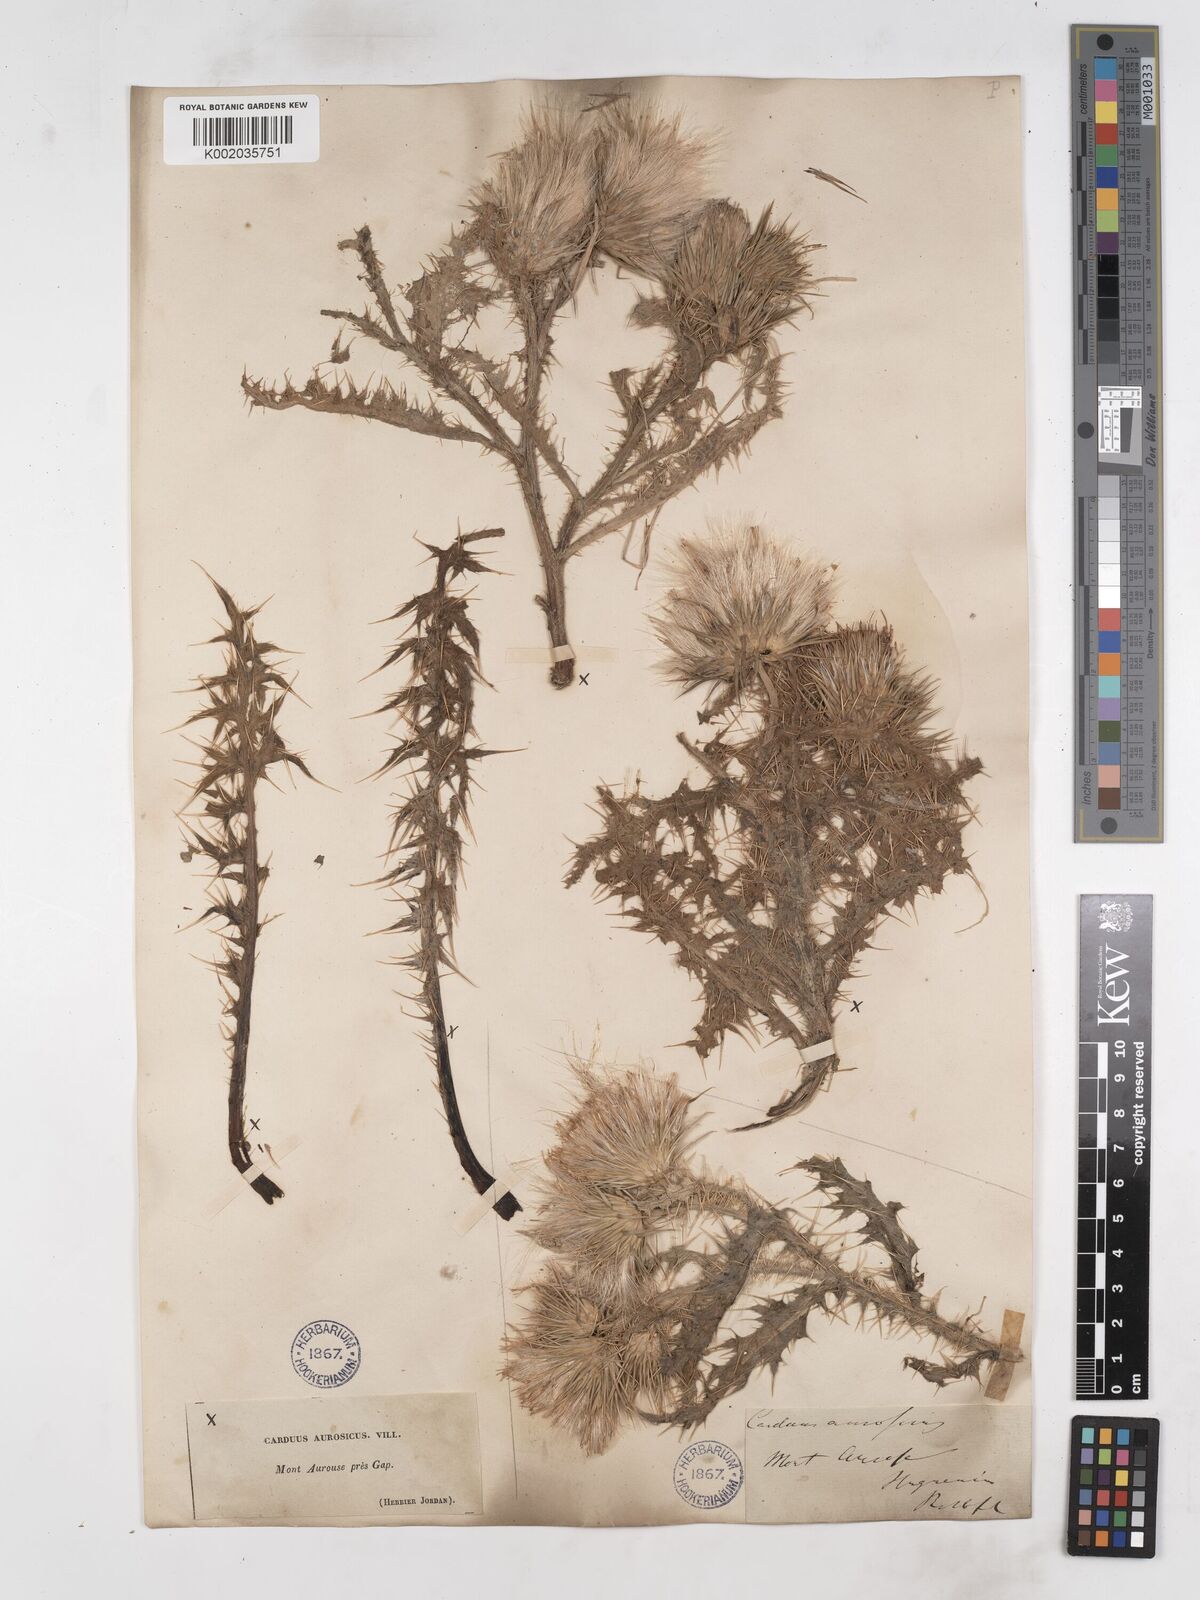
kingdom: Plantae
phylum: Tracheophyta
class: Magnoliopsida
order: Asterales
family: Asteraceae
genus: Carduus
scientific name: Carduus aurosicus
